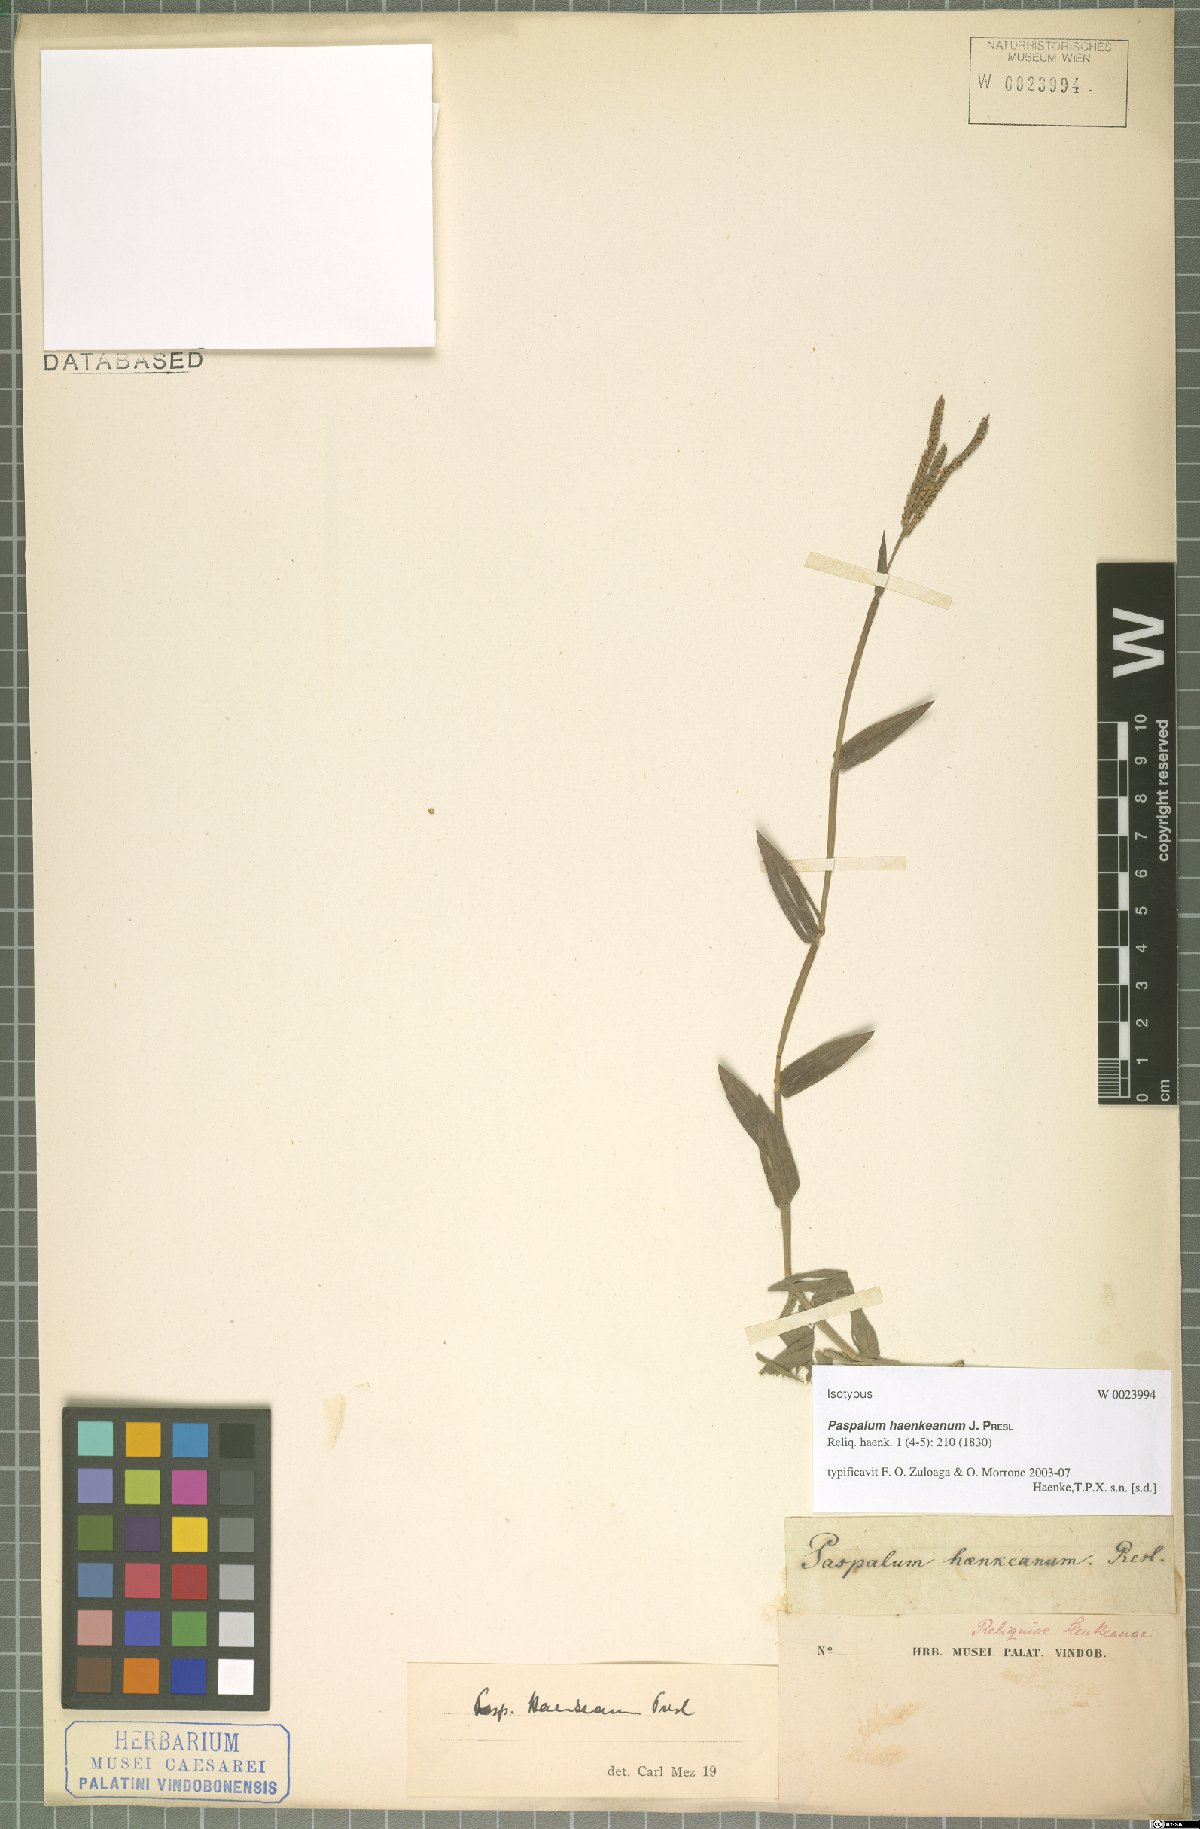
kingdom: Plantae
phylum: Tracheophyta
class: Liliopsida
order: Poales
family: Poaceae
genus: Paspalum
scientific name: Paspalum haenkeanum
